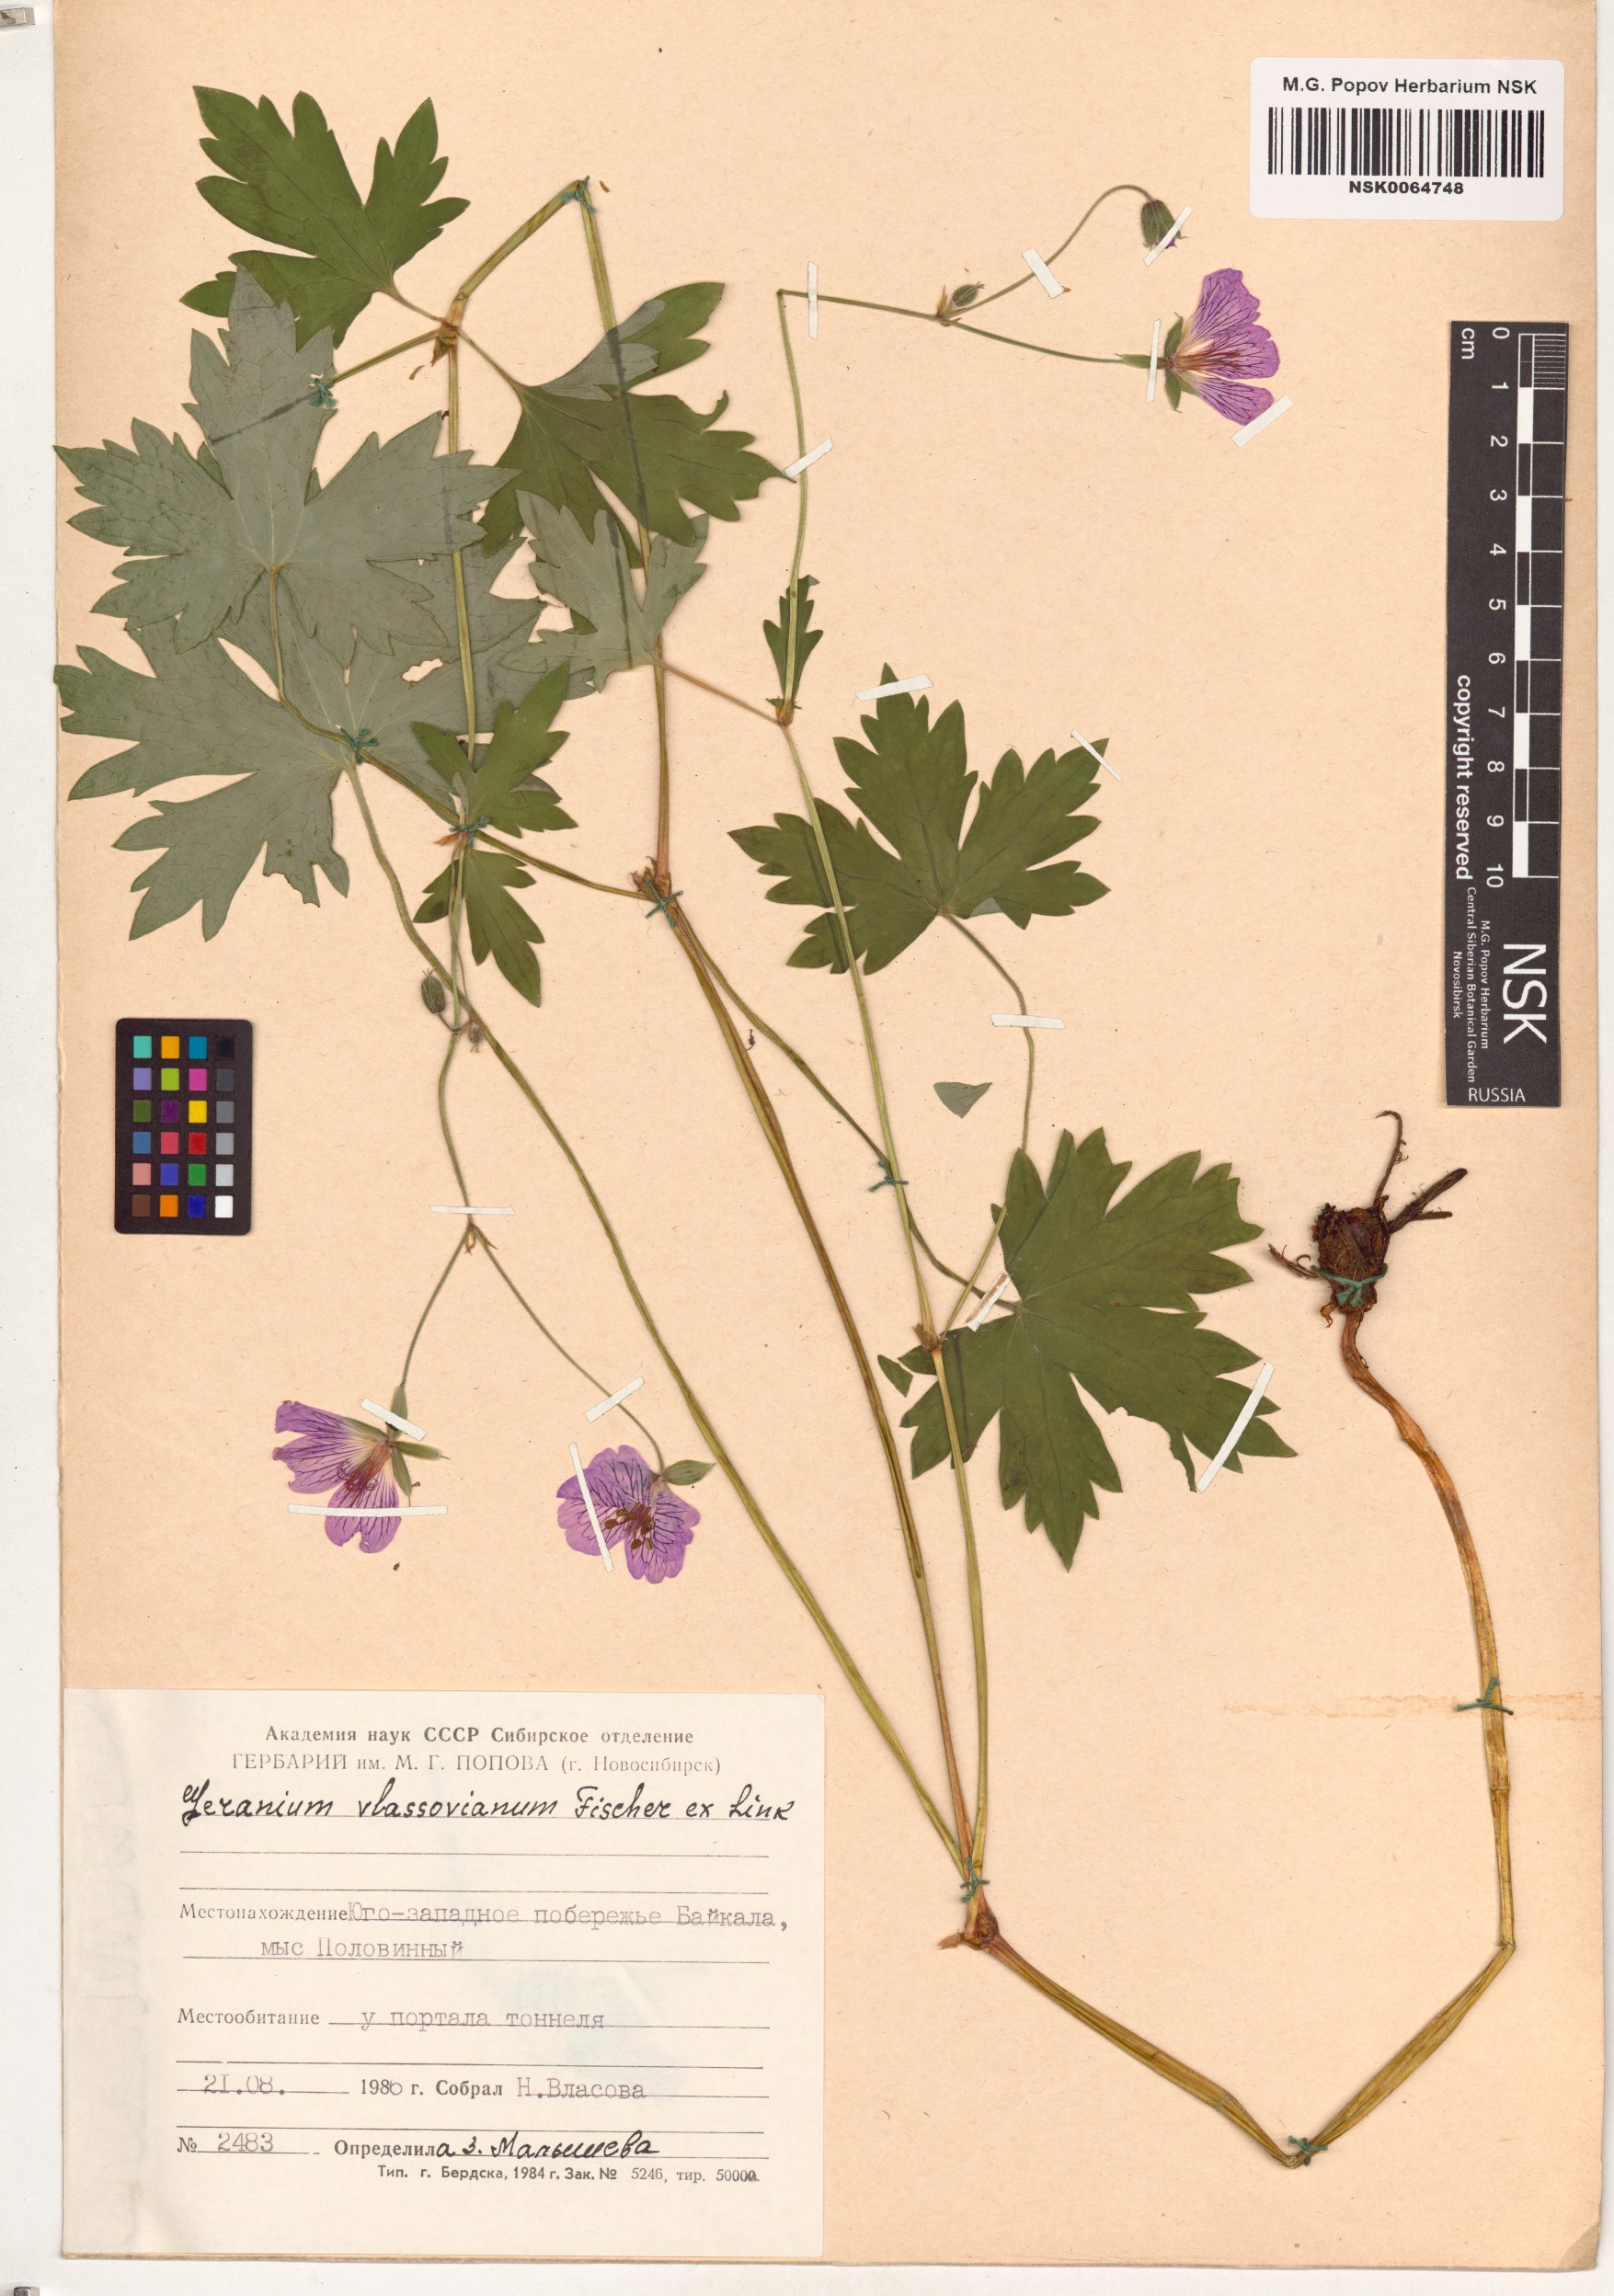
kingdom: Plantae
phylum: Tracheophyta
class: Magnoliopsida
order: Geraniales
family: Geraniaceae
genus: Geranium
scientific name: Geranium wlassovianum
